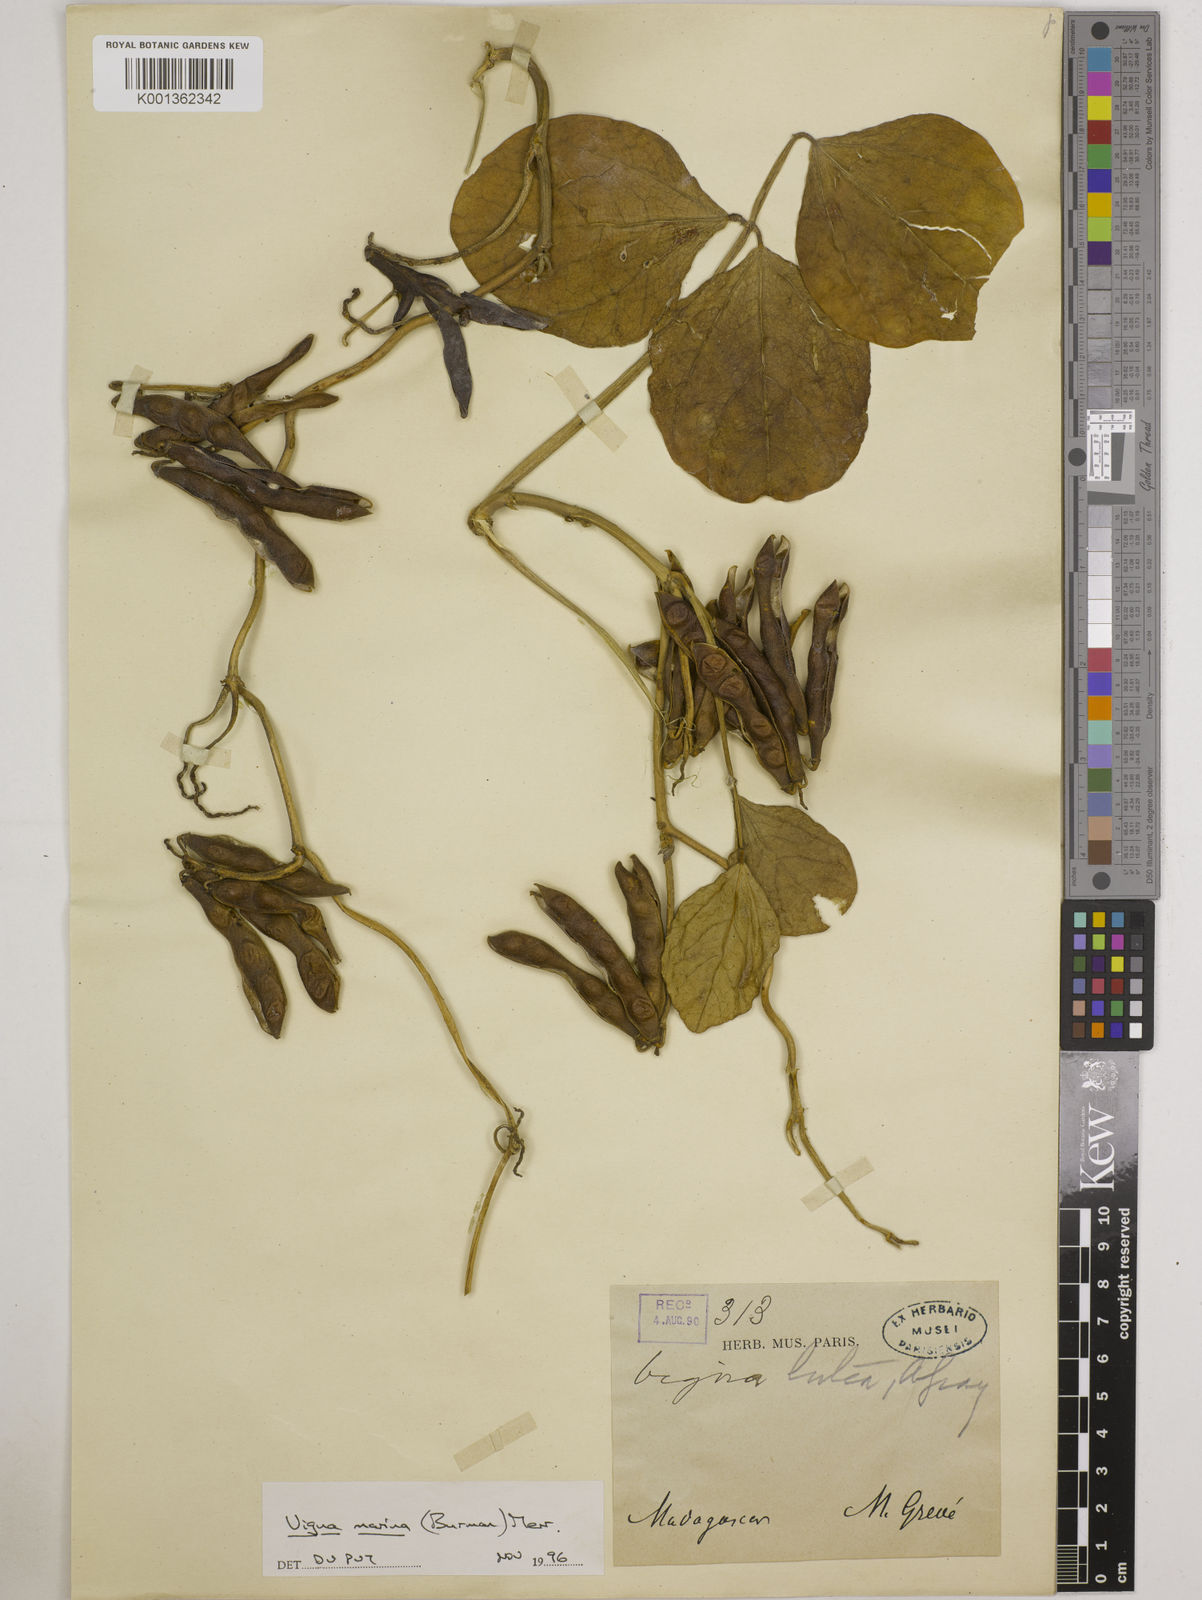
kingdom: Plantae
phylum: Tracheophyta
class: Magnoliopsida
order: Fabales
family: Fabaceae
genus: Vigna
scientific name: Vigna marina
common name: Dune-bean
